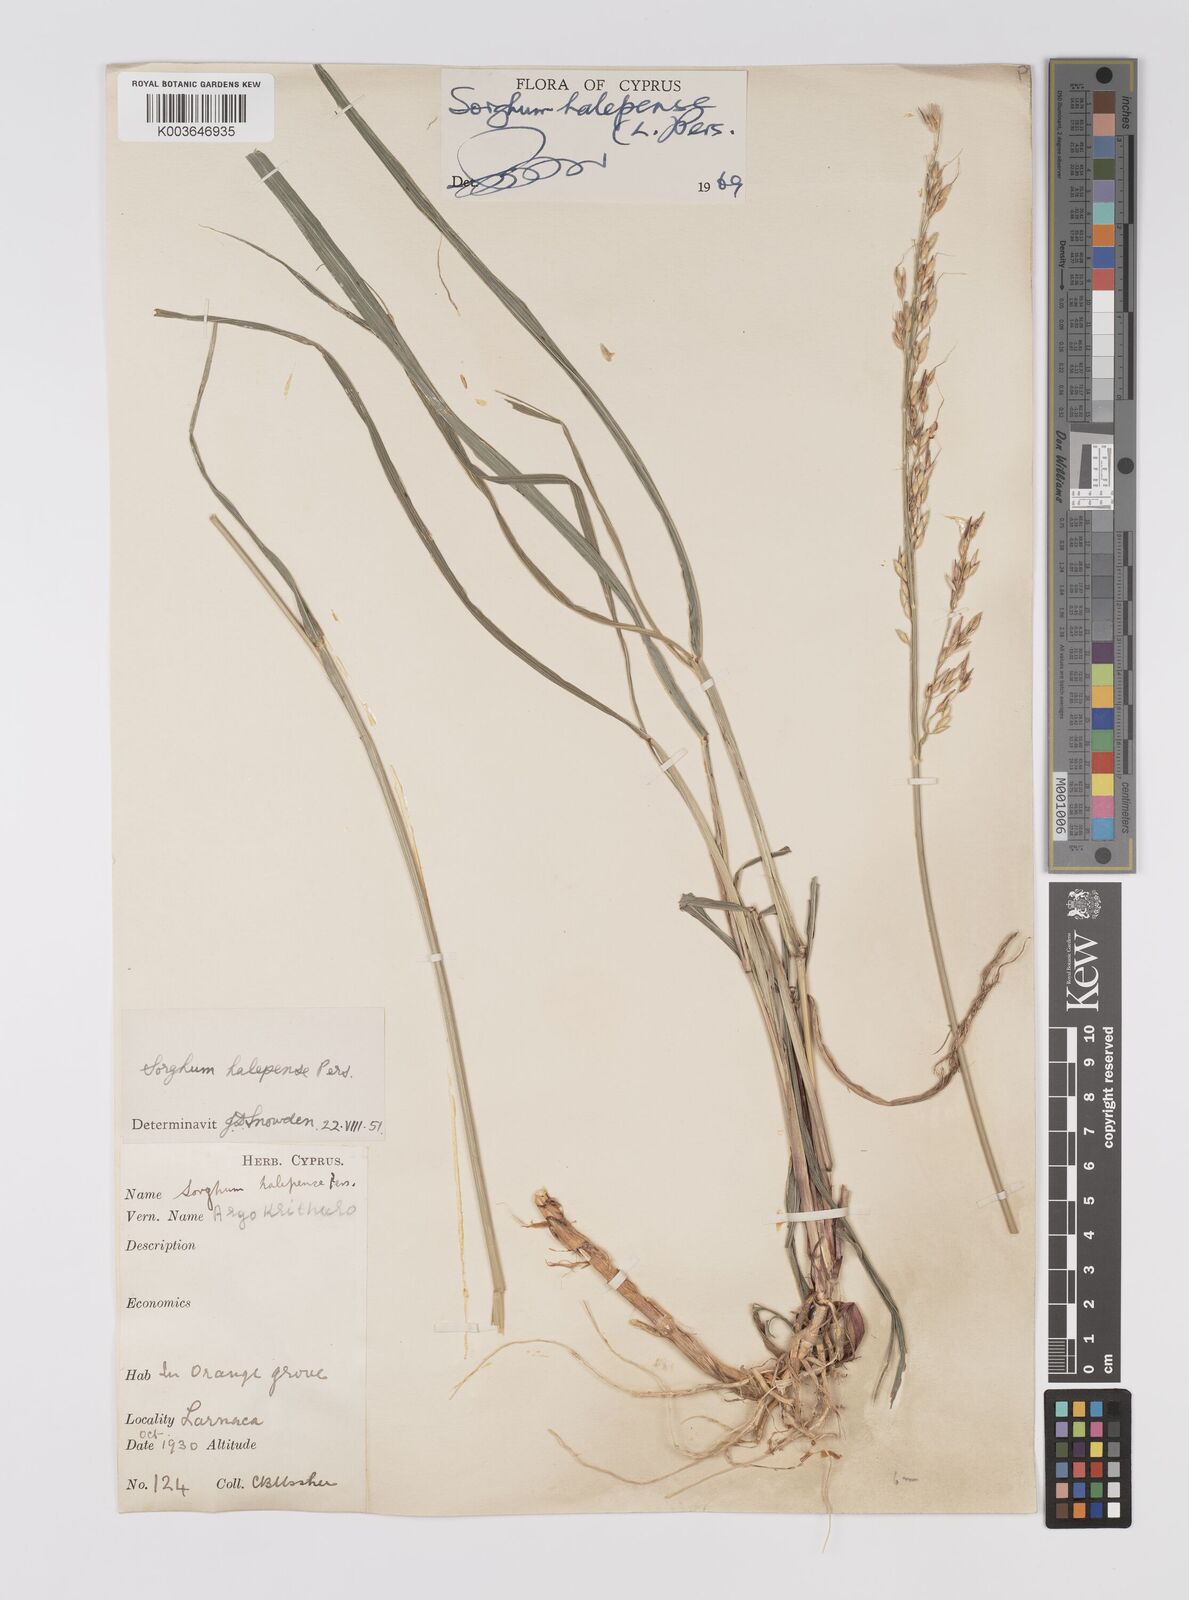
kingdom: Plantae
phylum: Tracheophyta
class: Liliopsida
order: Poales
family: Poaceae
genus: Sorghum
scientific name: Sorghum halepense
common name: Johnson-grass
